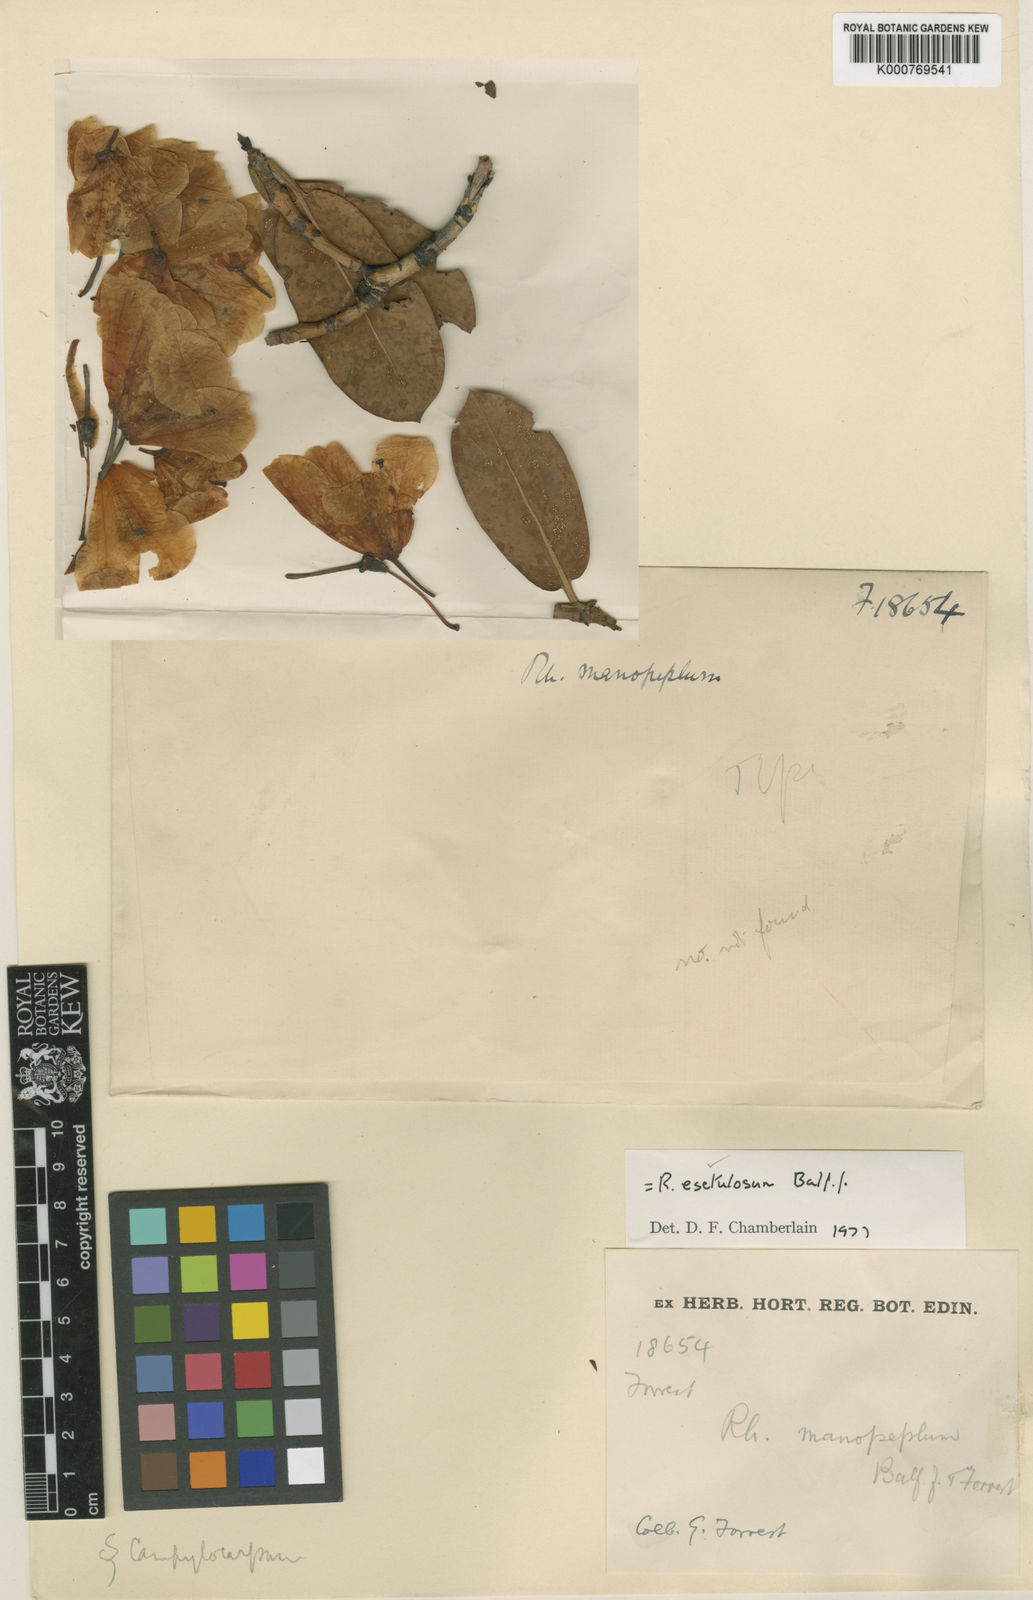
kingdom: Plantae
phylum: Tracheophyta
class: Magnoliopsida
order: Ericales
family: Ericaceae
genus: Rhododendron
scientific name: Rhododendron esetulosum
